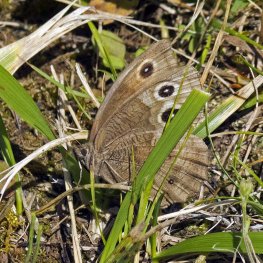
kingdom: Animalia
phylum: Arthropoda
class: Insecta
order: Lepidoptera
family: Nymphalidae
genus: Cercyonis
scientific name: Cercyonis pegala
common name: Common Wood-Nymph
